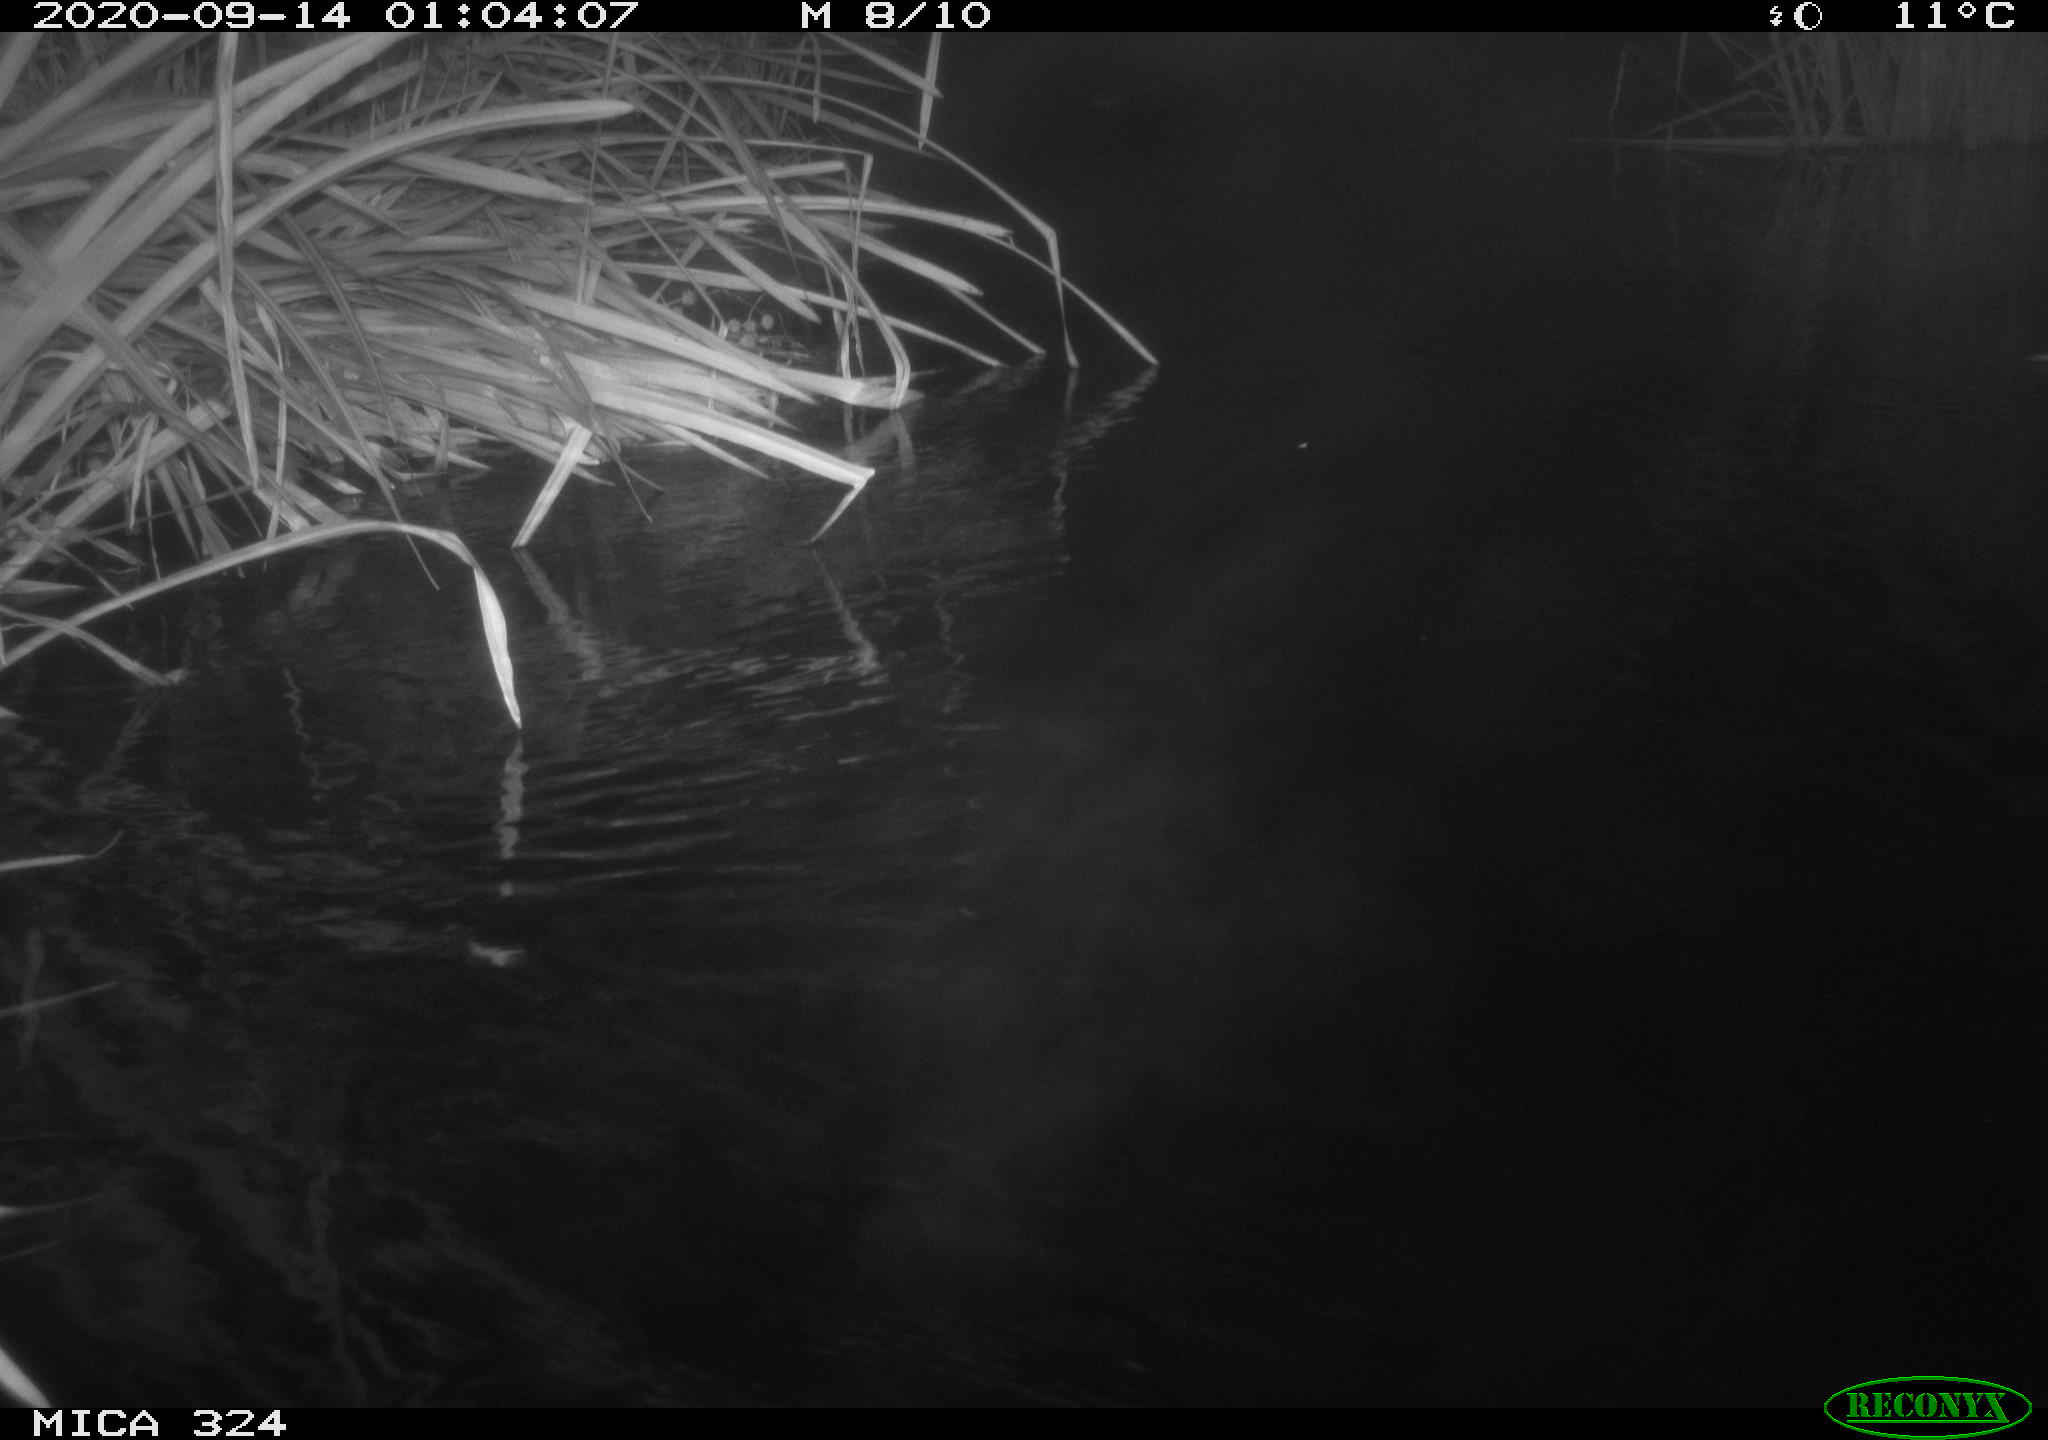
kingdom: Animalia
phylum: Chordata
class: Mammalia
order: Rodentia
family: Cricetidae
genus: Ondatra
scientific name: Ondatra zibethicus
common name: Muskrat
